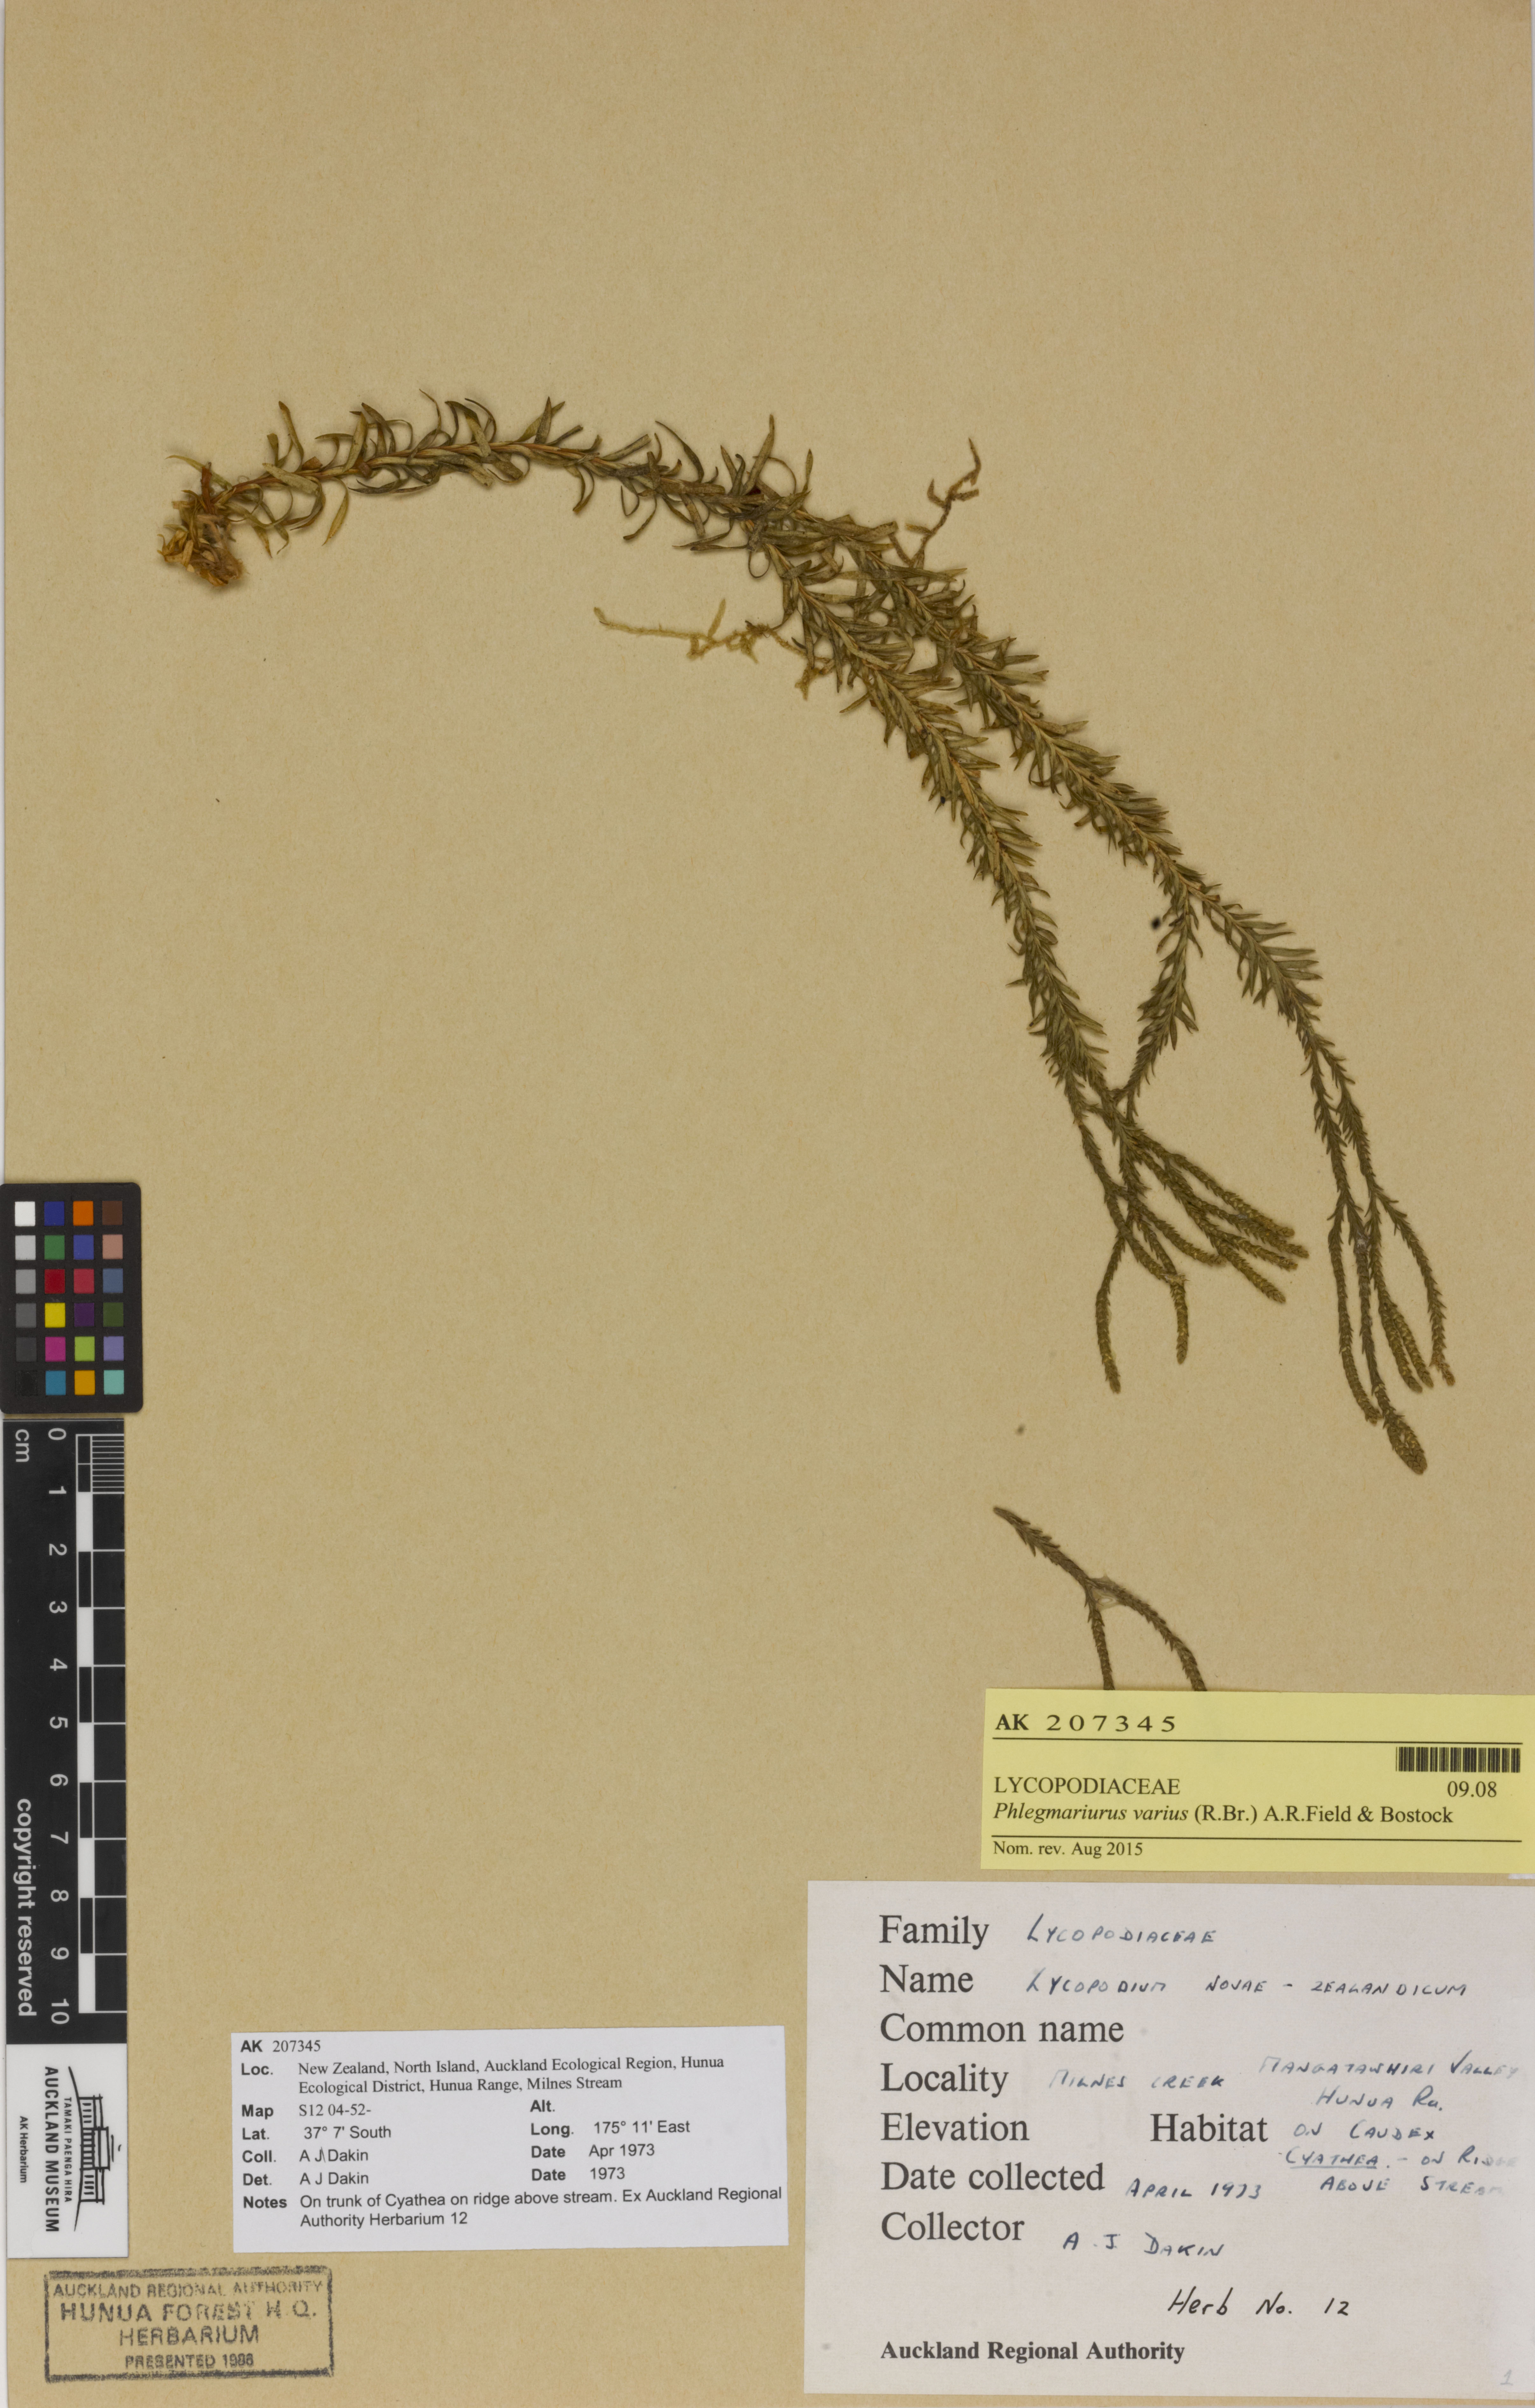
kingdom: Plantae
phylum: Tracheophyta
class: Lycopodiopsida
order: Lycopodiales
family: Lycopodiaceae
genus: Phlegmariurus
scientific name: Phlegmariurus billardierei
